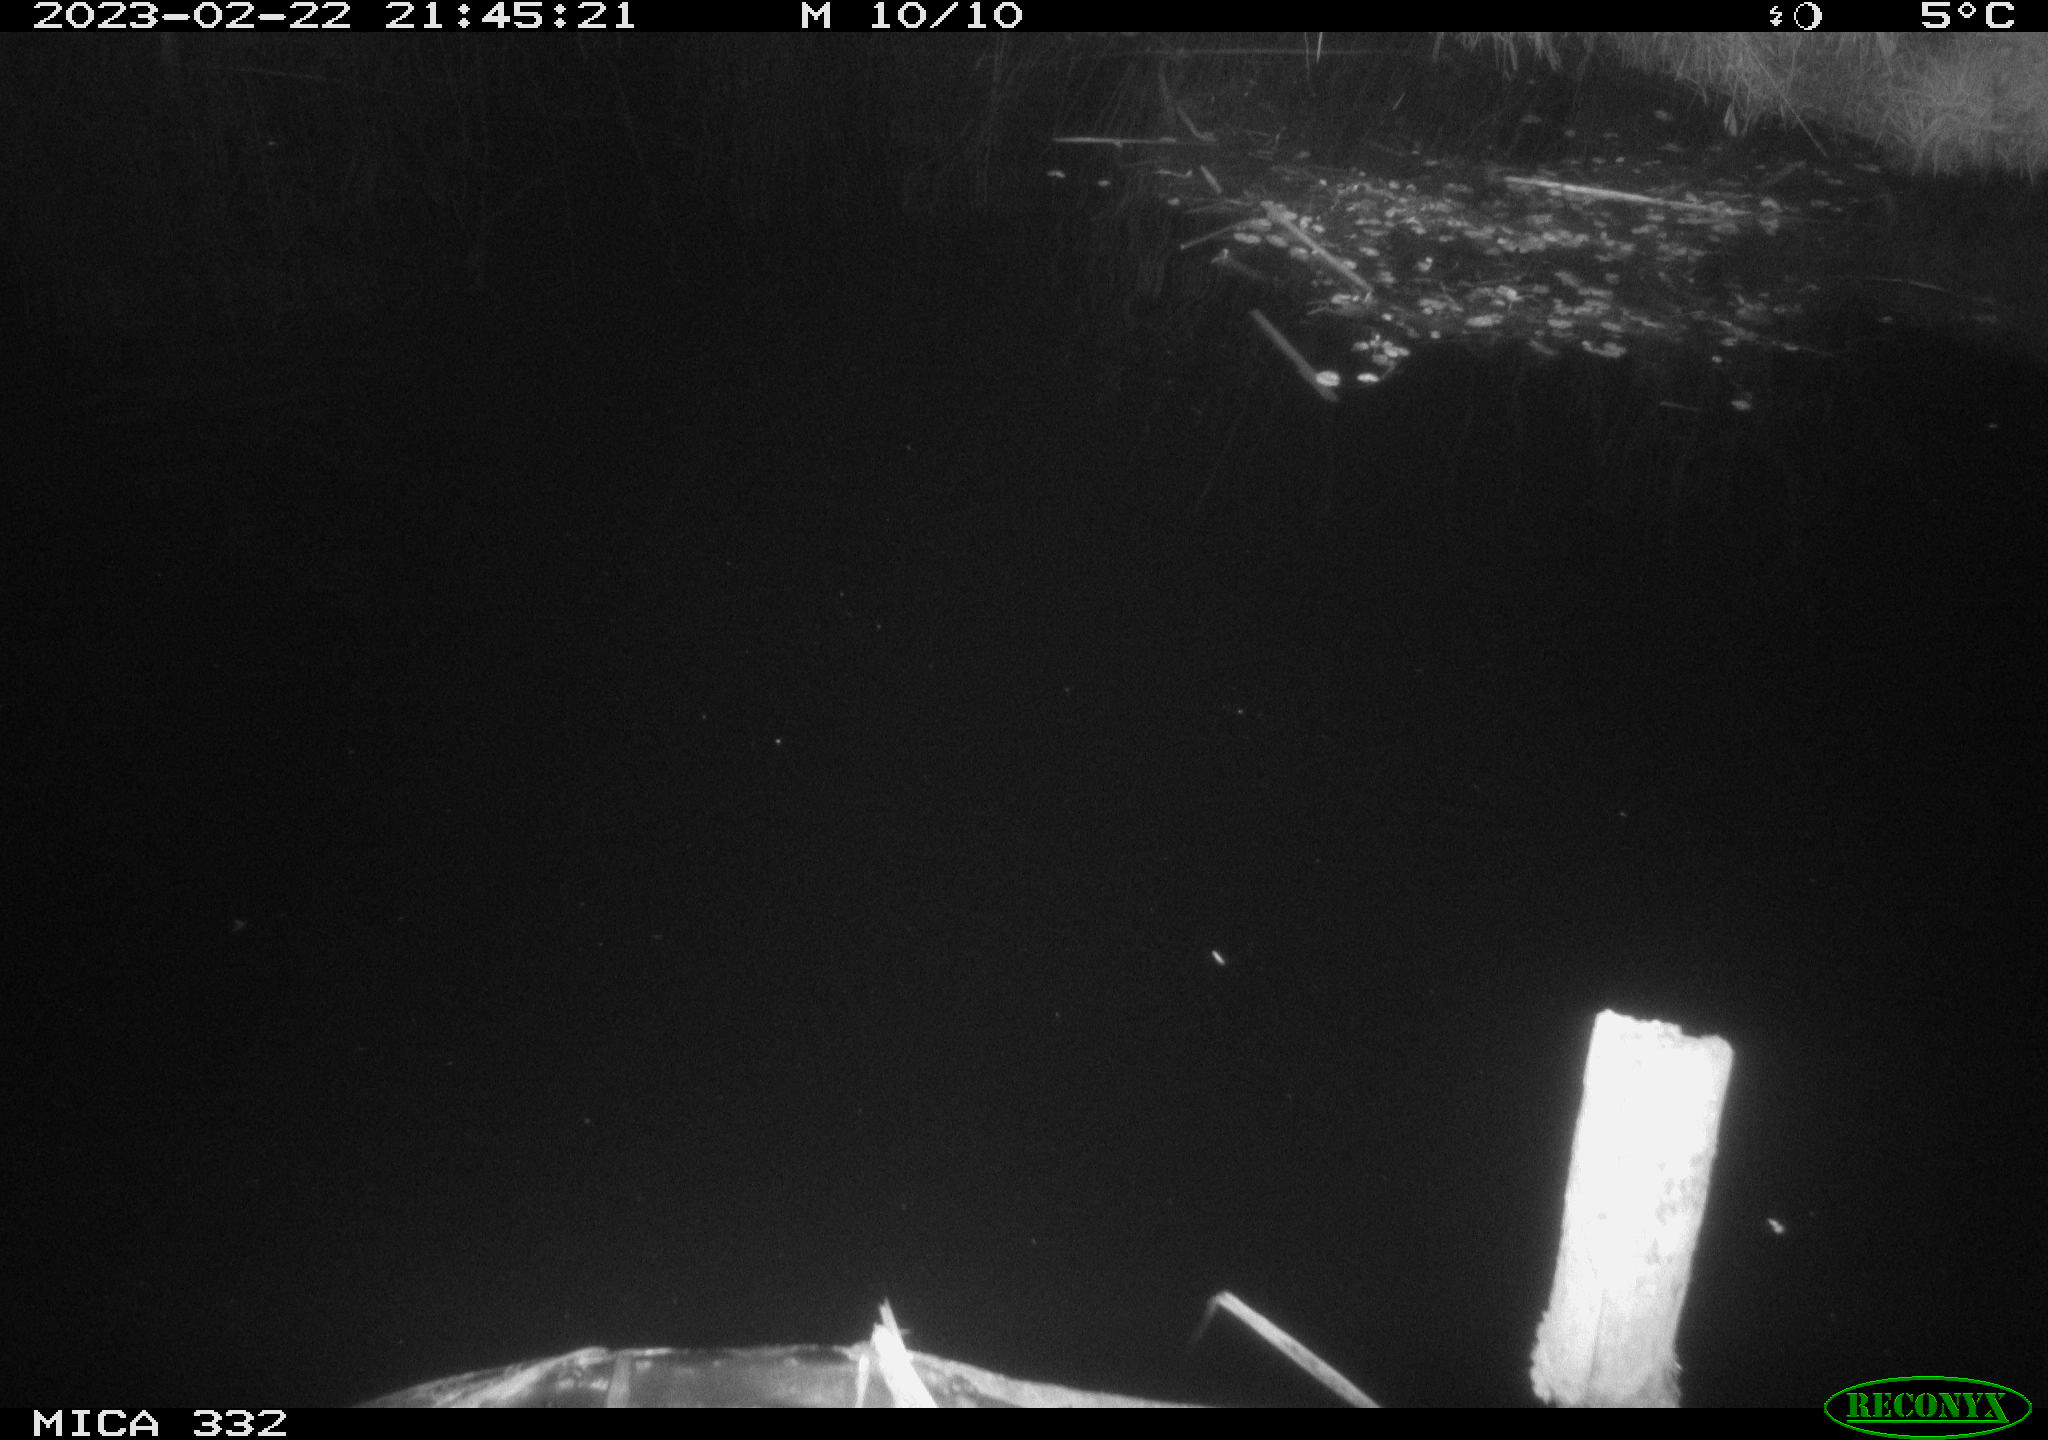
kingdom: Animalia
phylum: Chordata
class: Aves
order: Anseriformes
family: Anatidae
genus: Anas
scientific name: Anas
